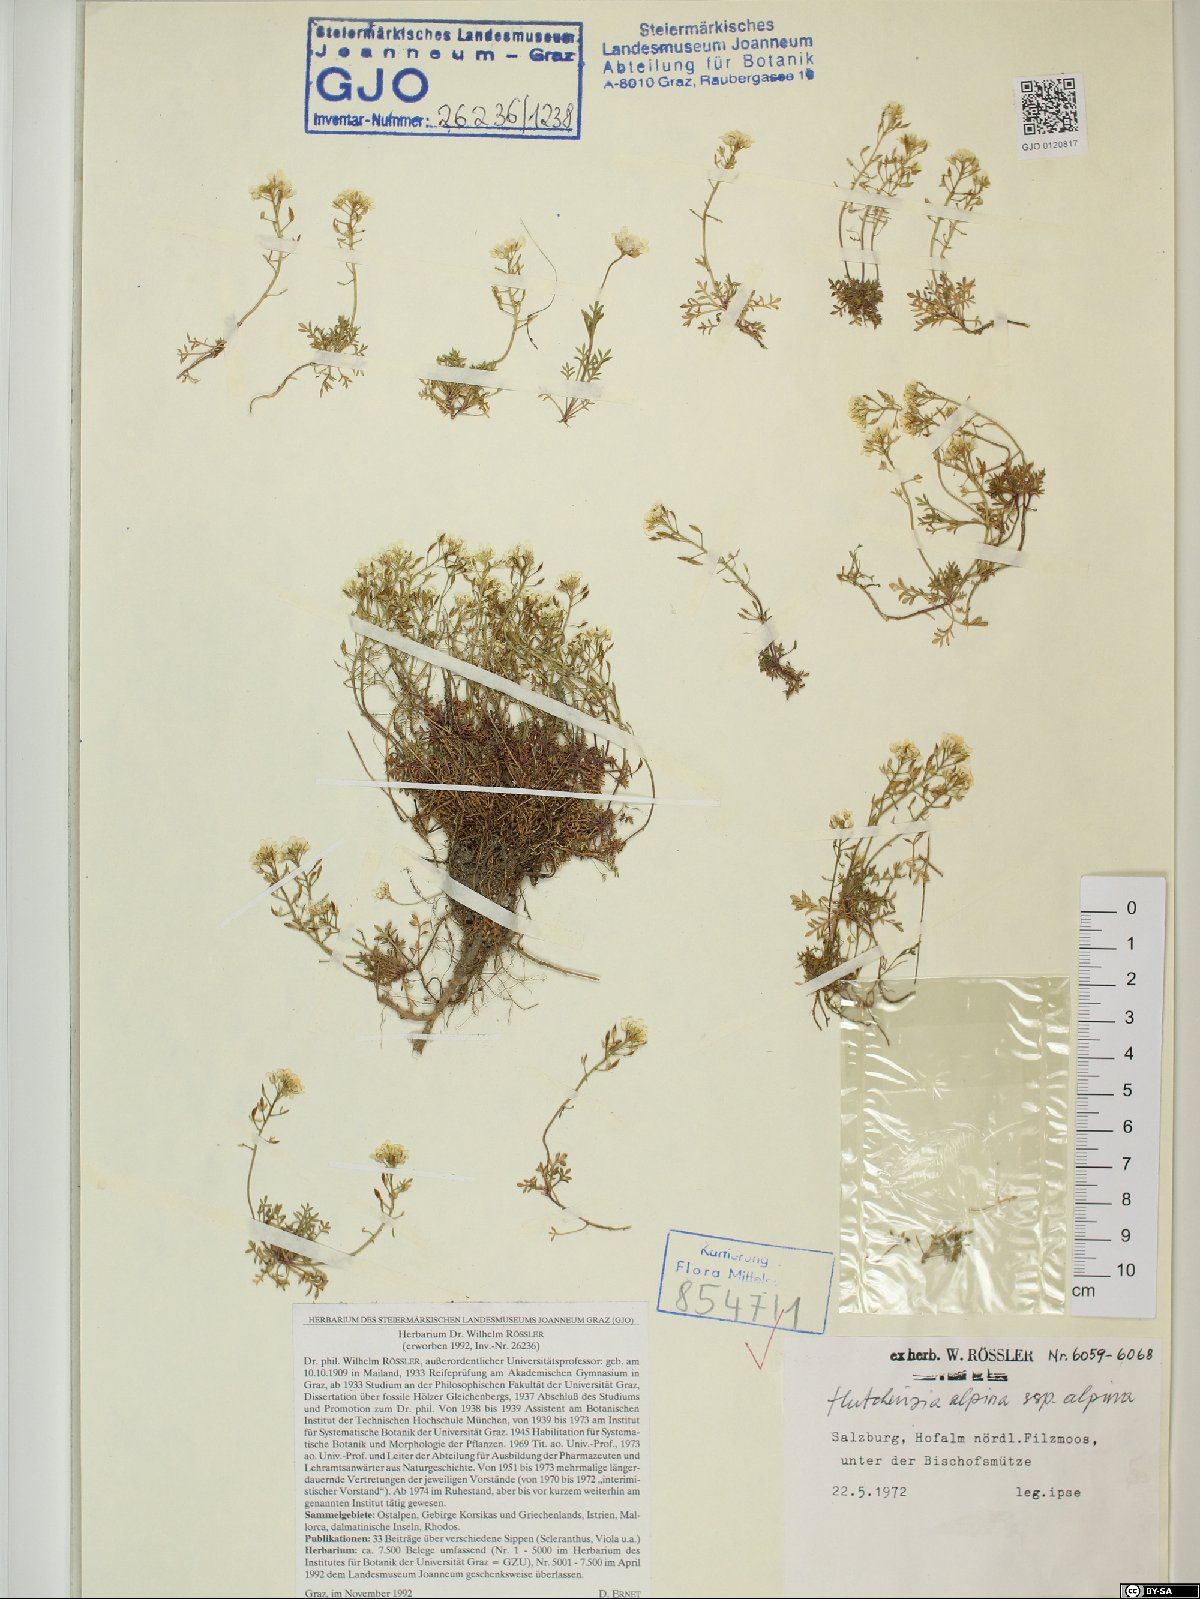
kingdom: Plantae
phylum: Tracheophyta
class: Magnoliopsida
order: Brassicales
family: Brassicaceae
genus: Hornungia
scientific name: Hornungia alpina
